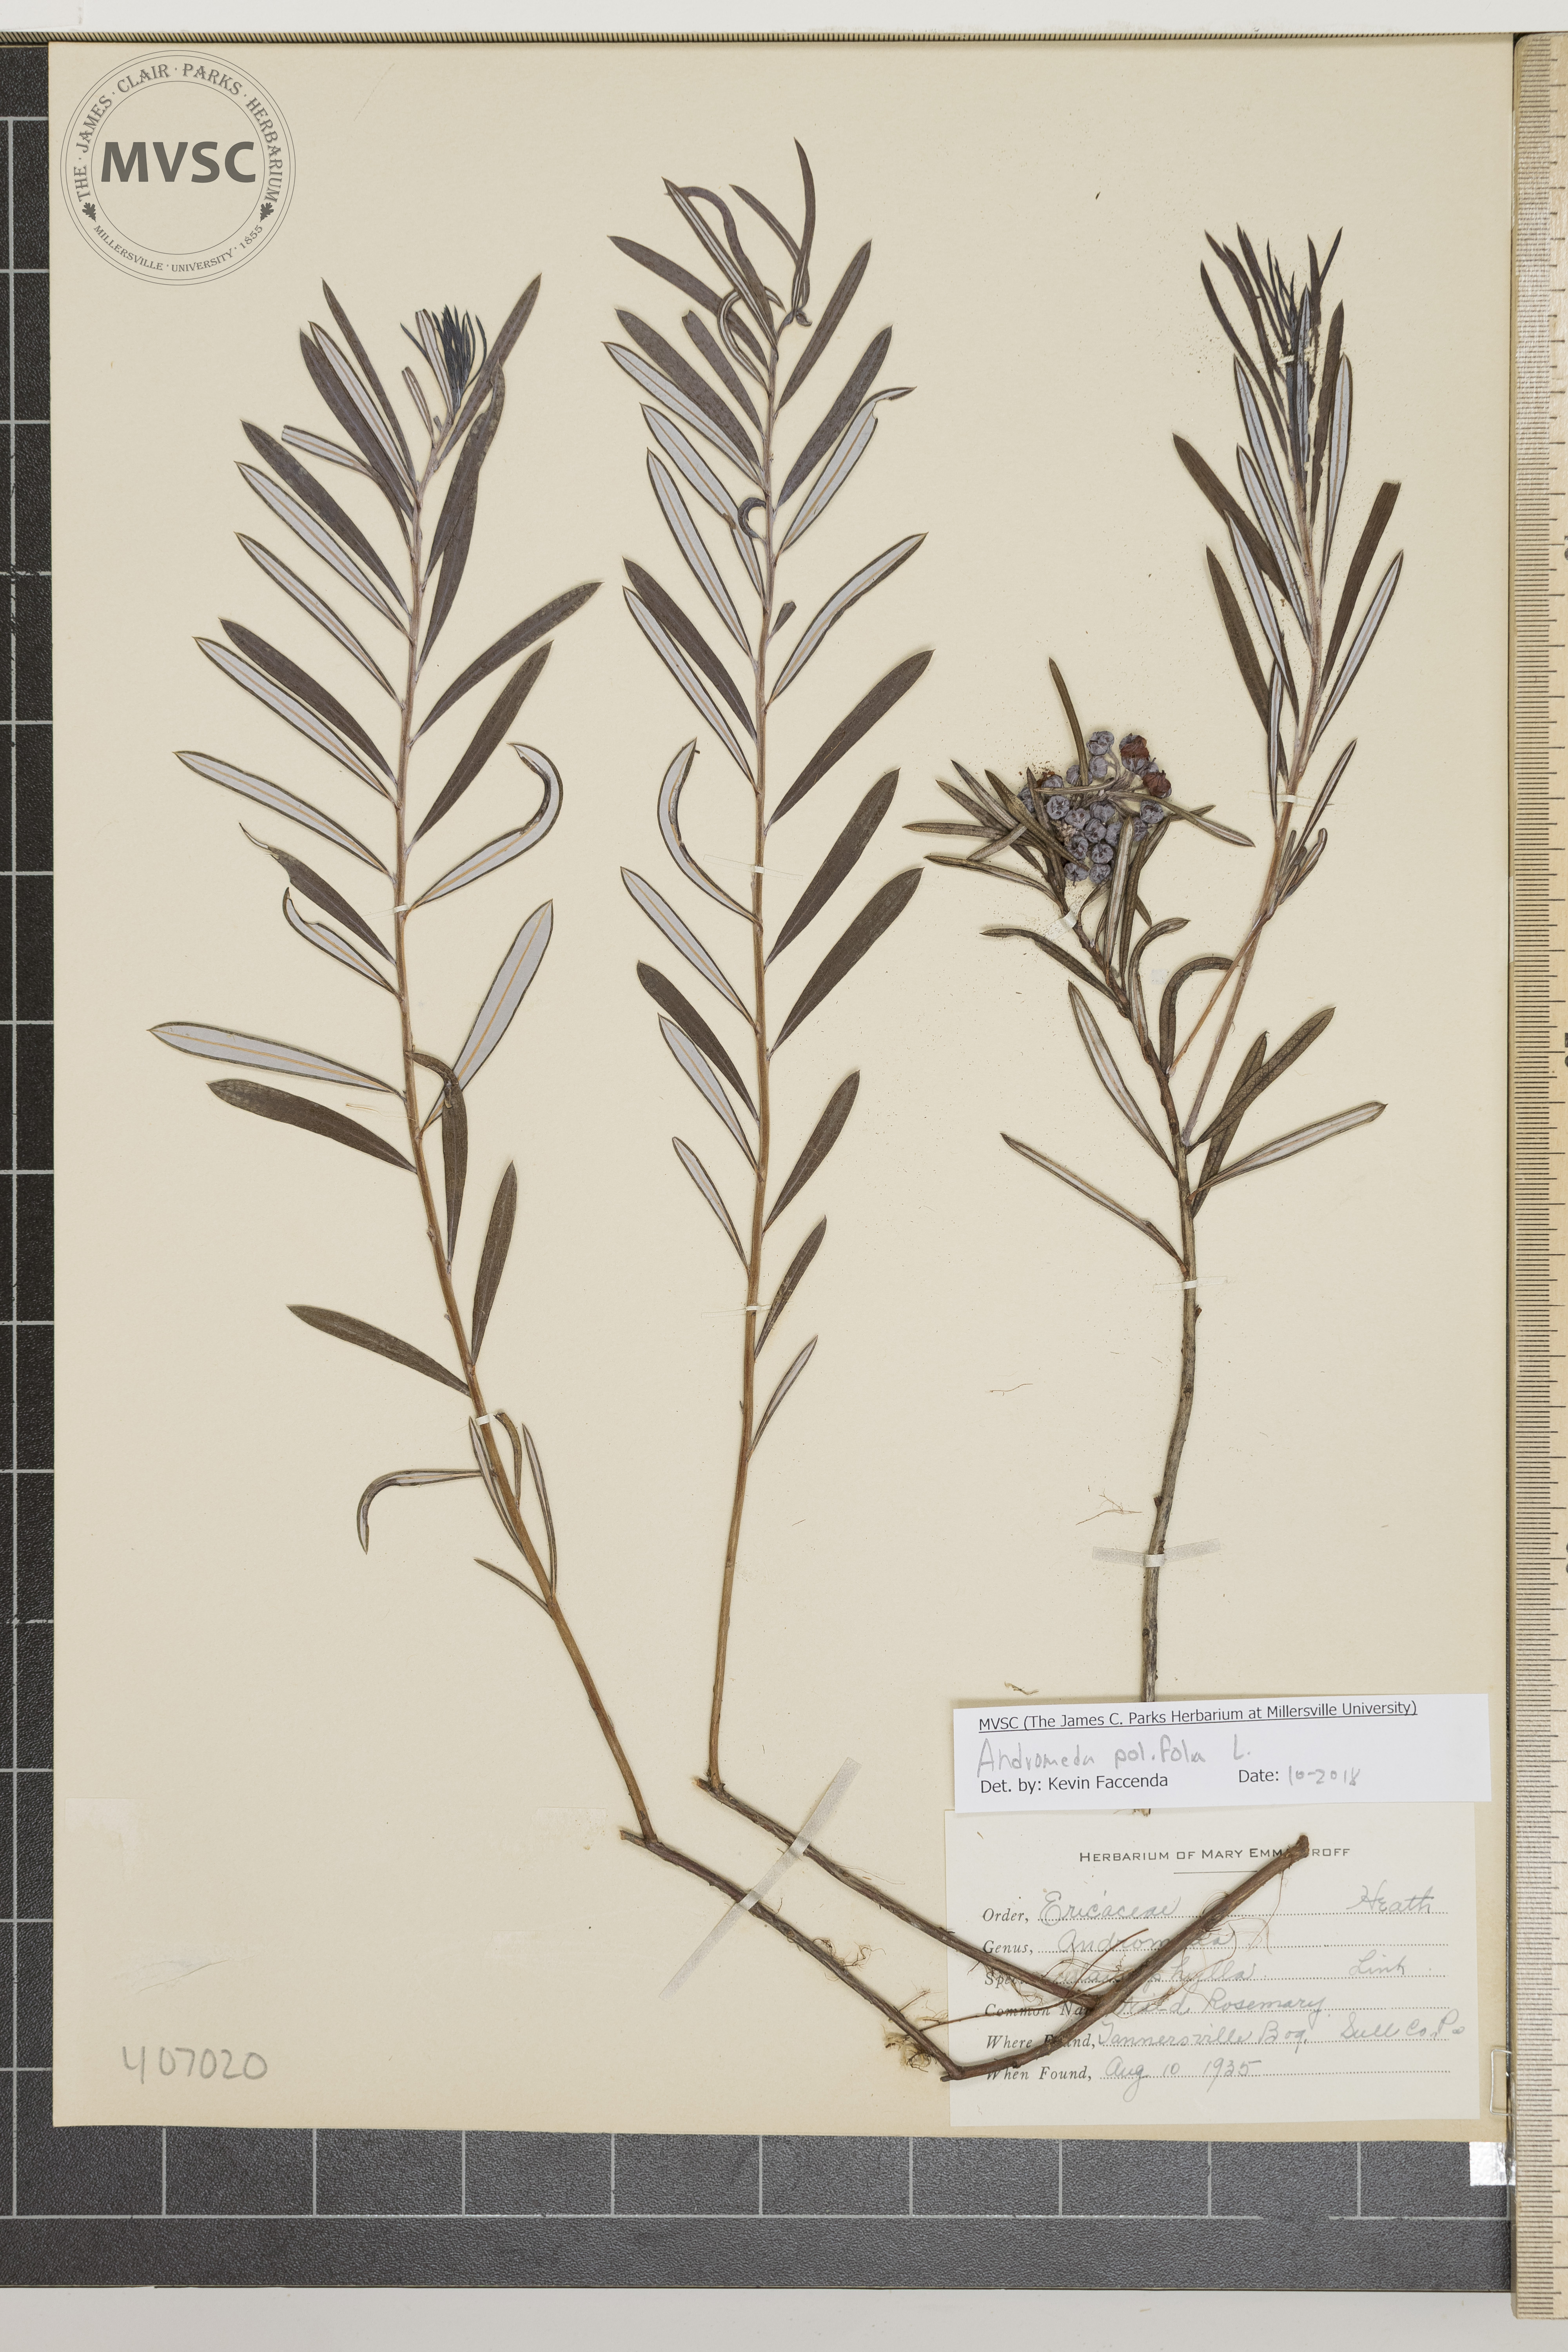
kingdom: Plantae
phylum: Tracheophyta
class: Magnoliopsida
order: Ericales
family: Ericaceae
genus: Andromeda
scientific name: Andromeda polifolia
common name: Wild Rosemary
